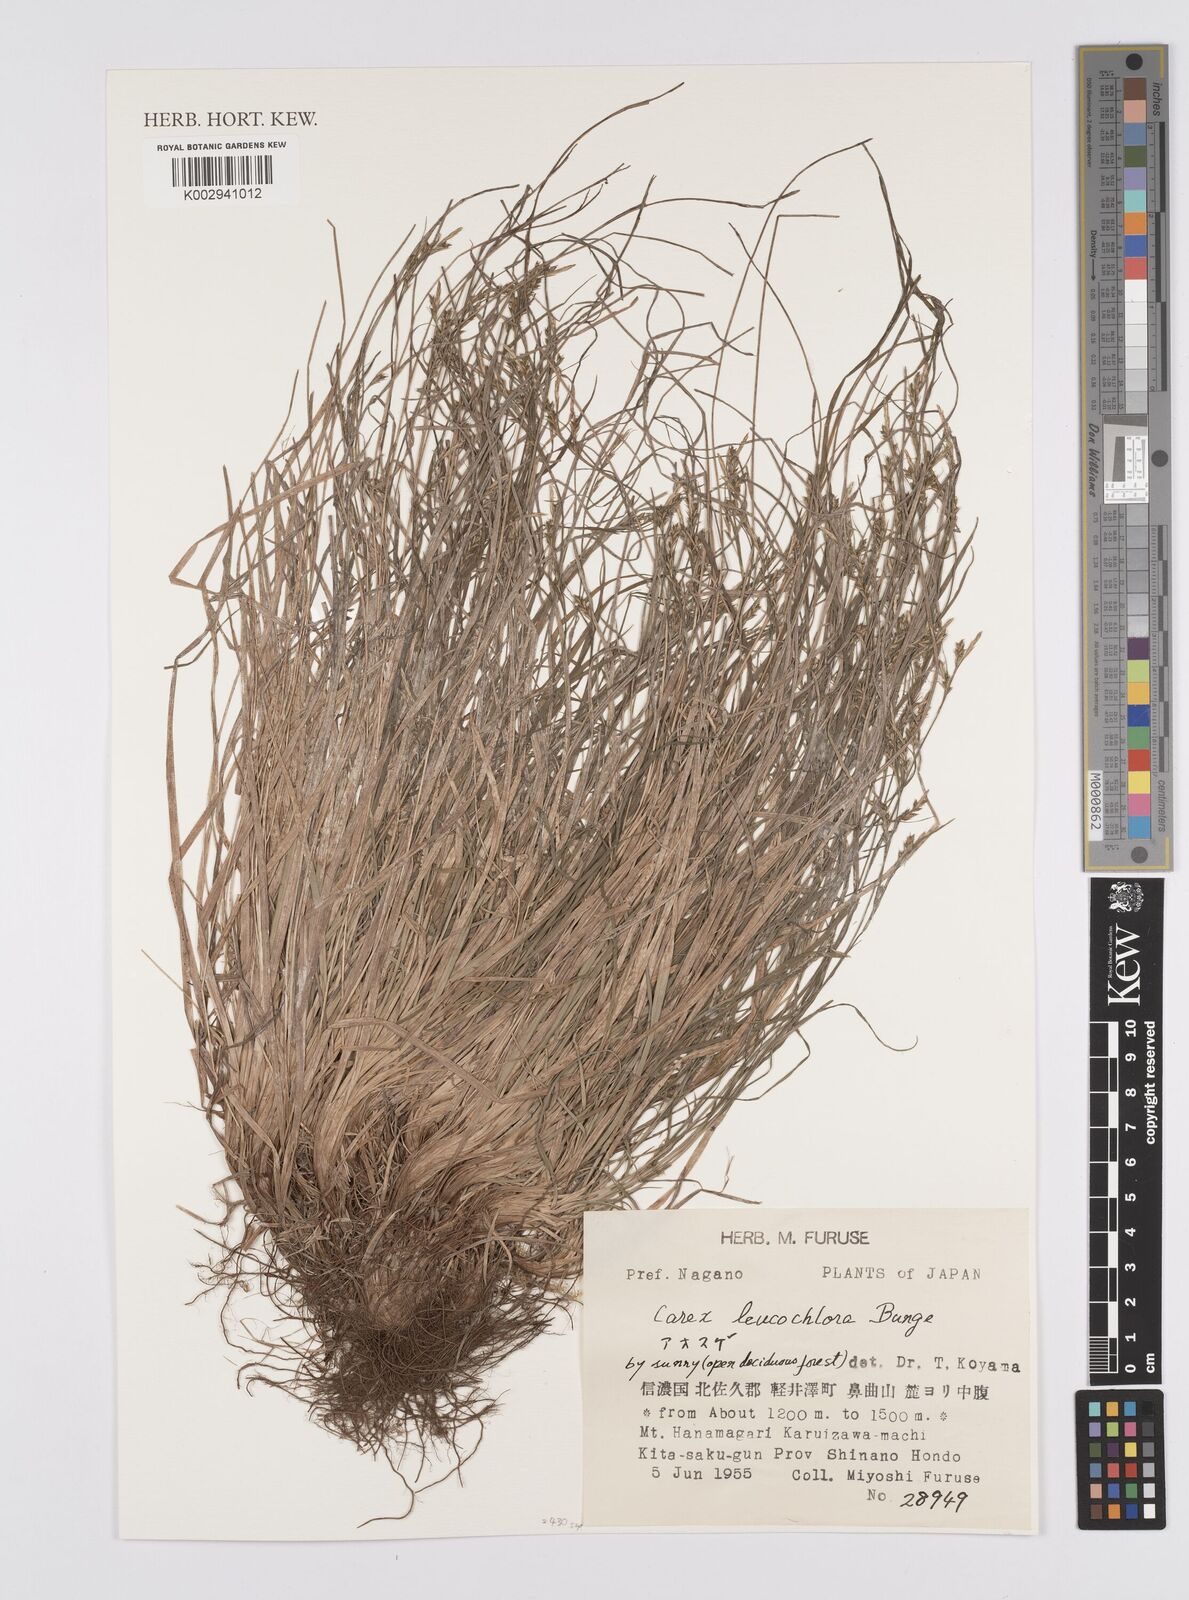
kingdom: Plantae
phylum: Tracheophyta
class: Liliopsida
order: Poales
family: Cyperaceae
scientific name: Cyperaceae
